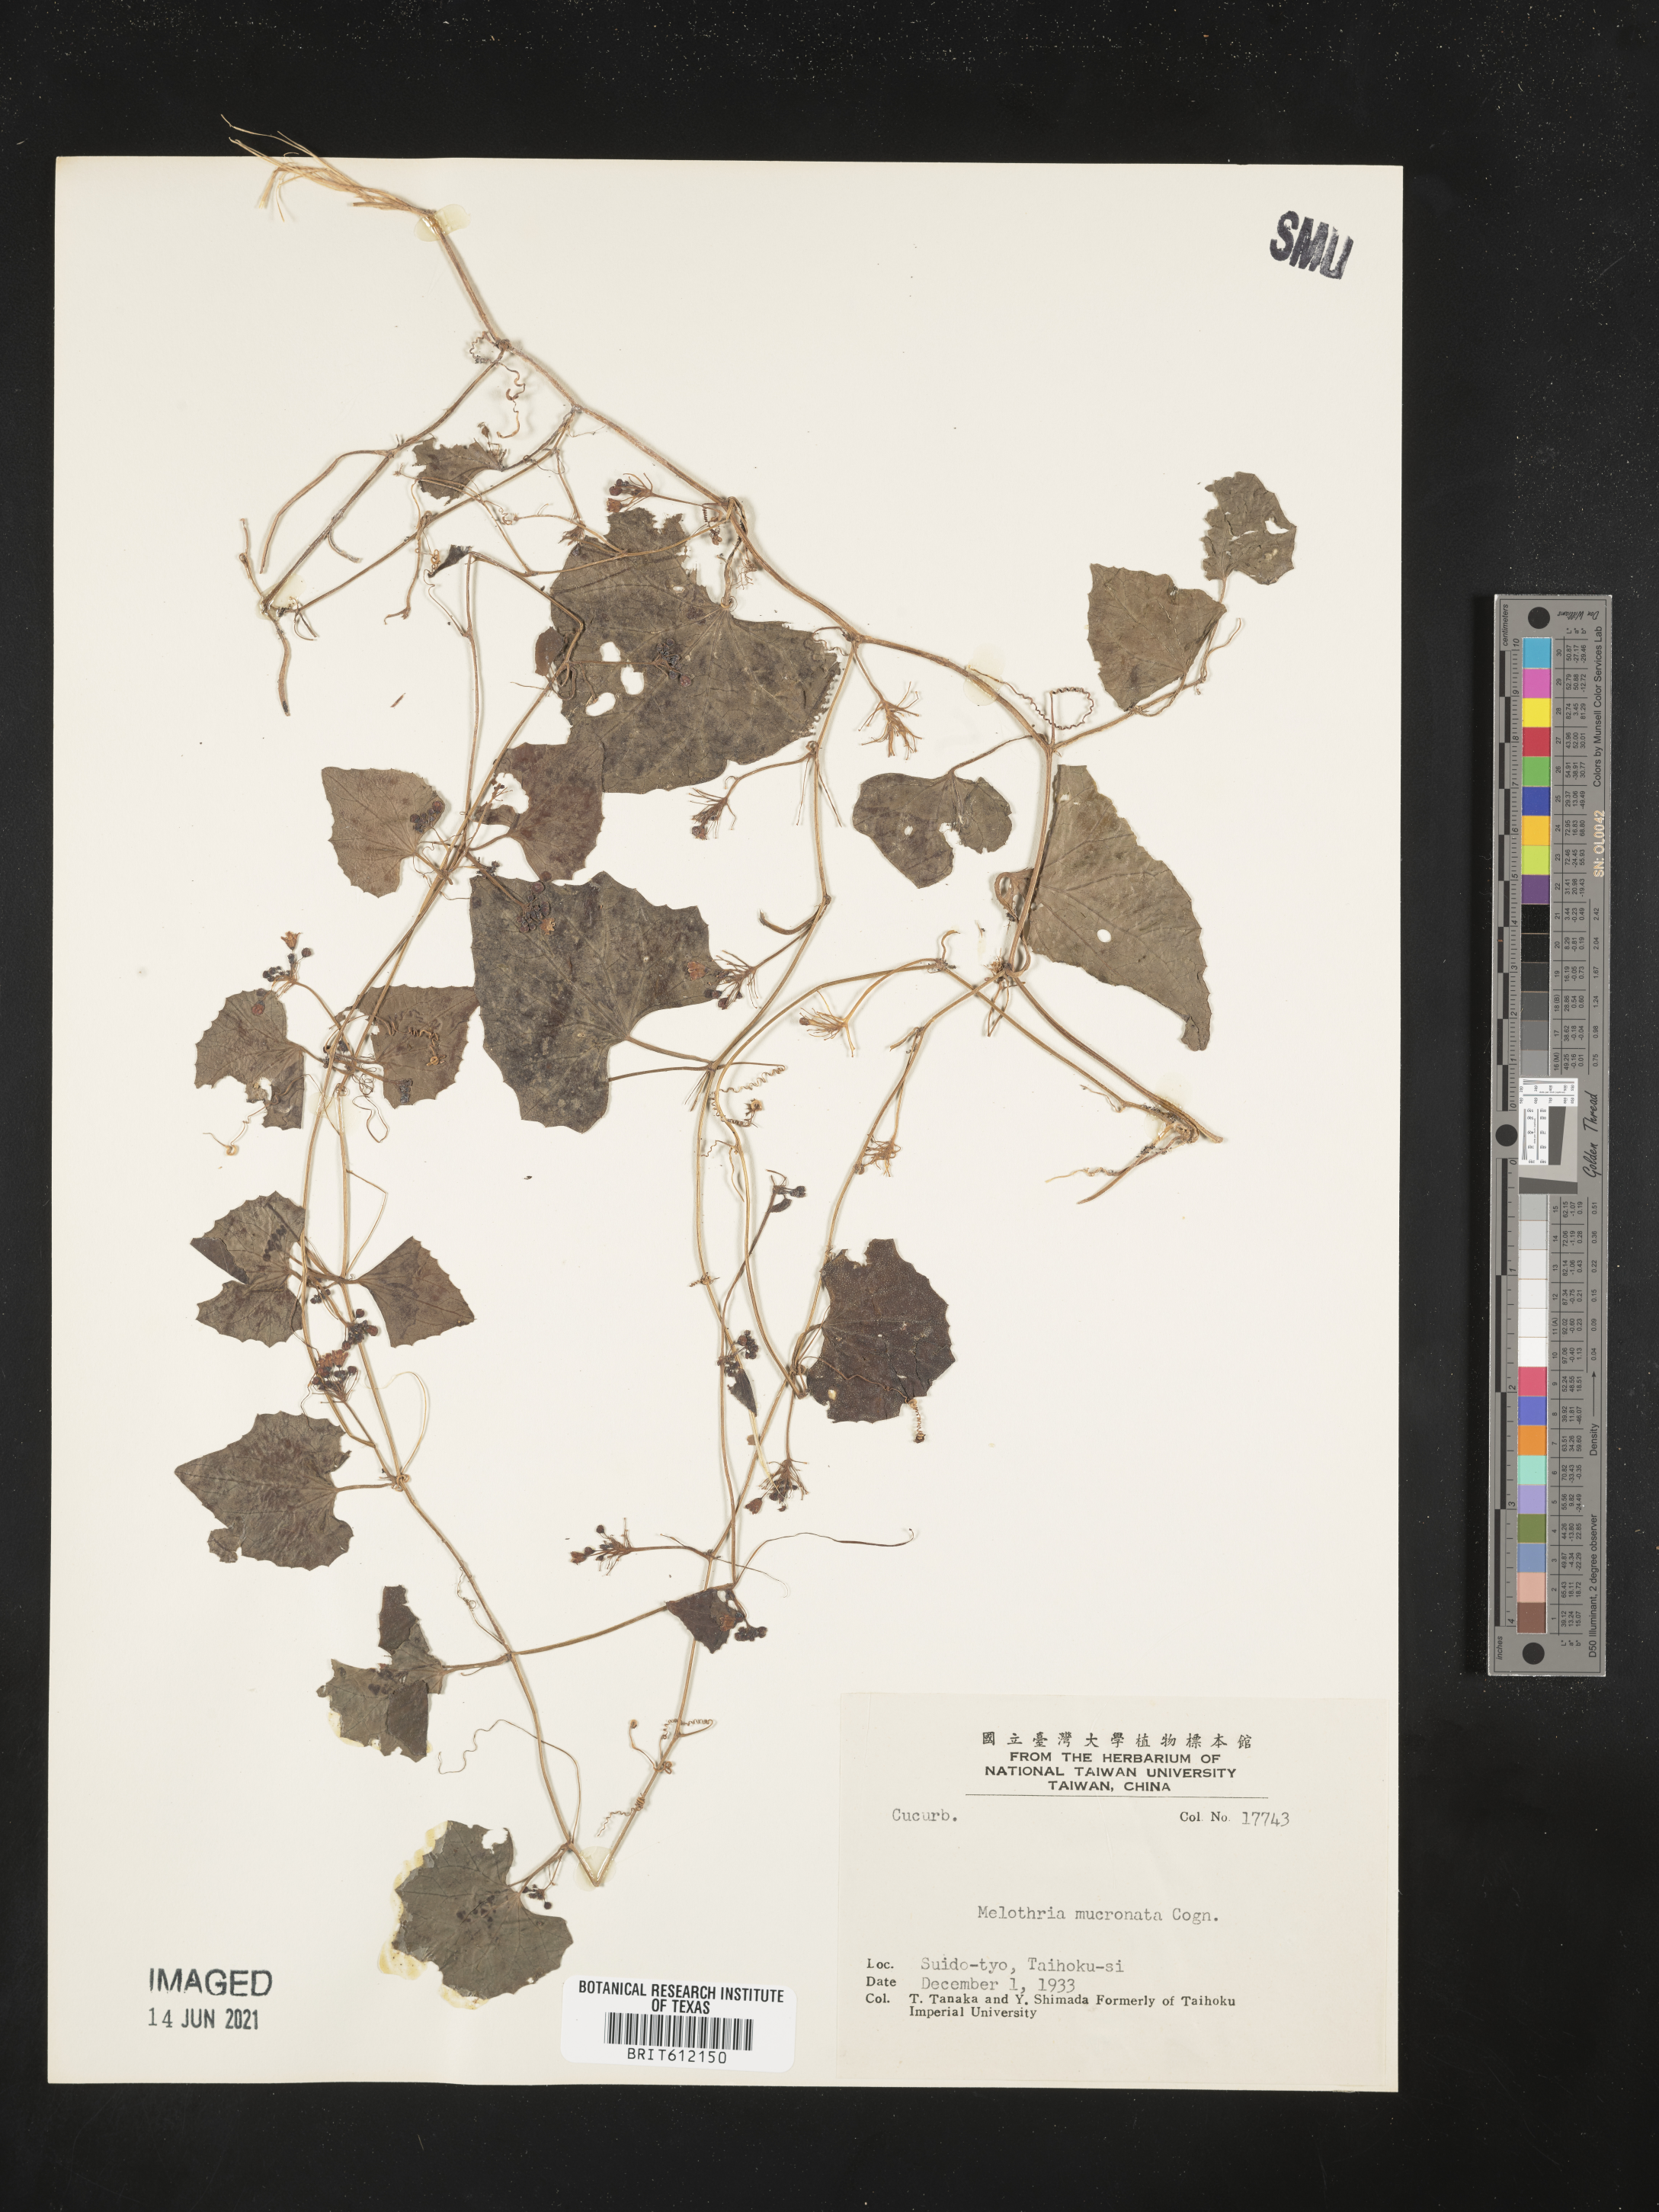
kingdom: Plantae
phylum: Tracheophyta
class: Magnoliopsida
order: Cucurbitales
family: Cucurbitaceae
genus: Zehneria
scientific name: Zehneria mucronata
